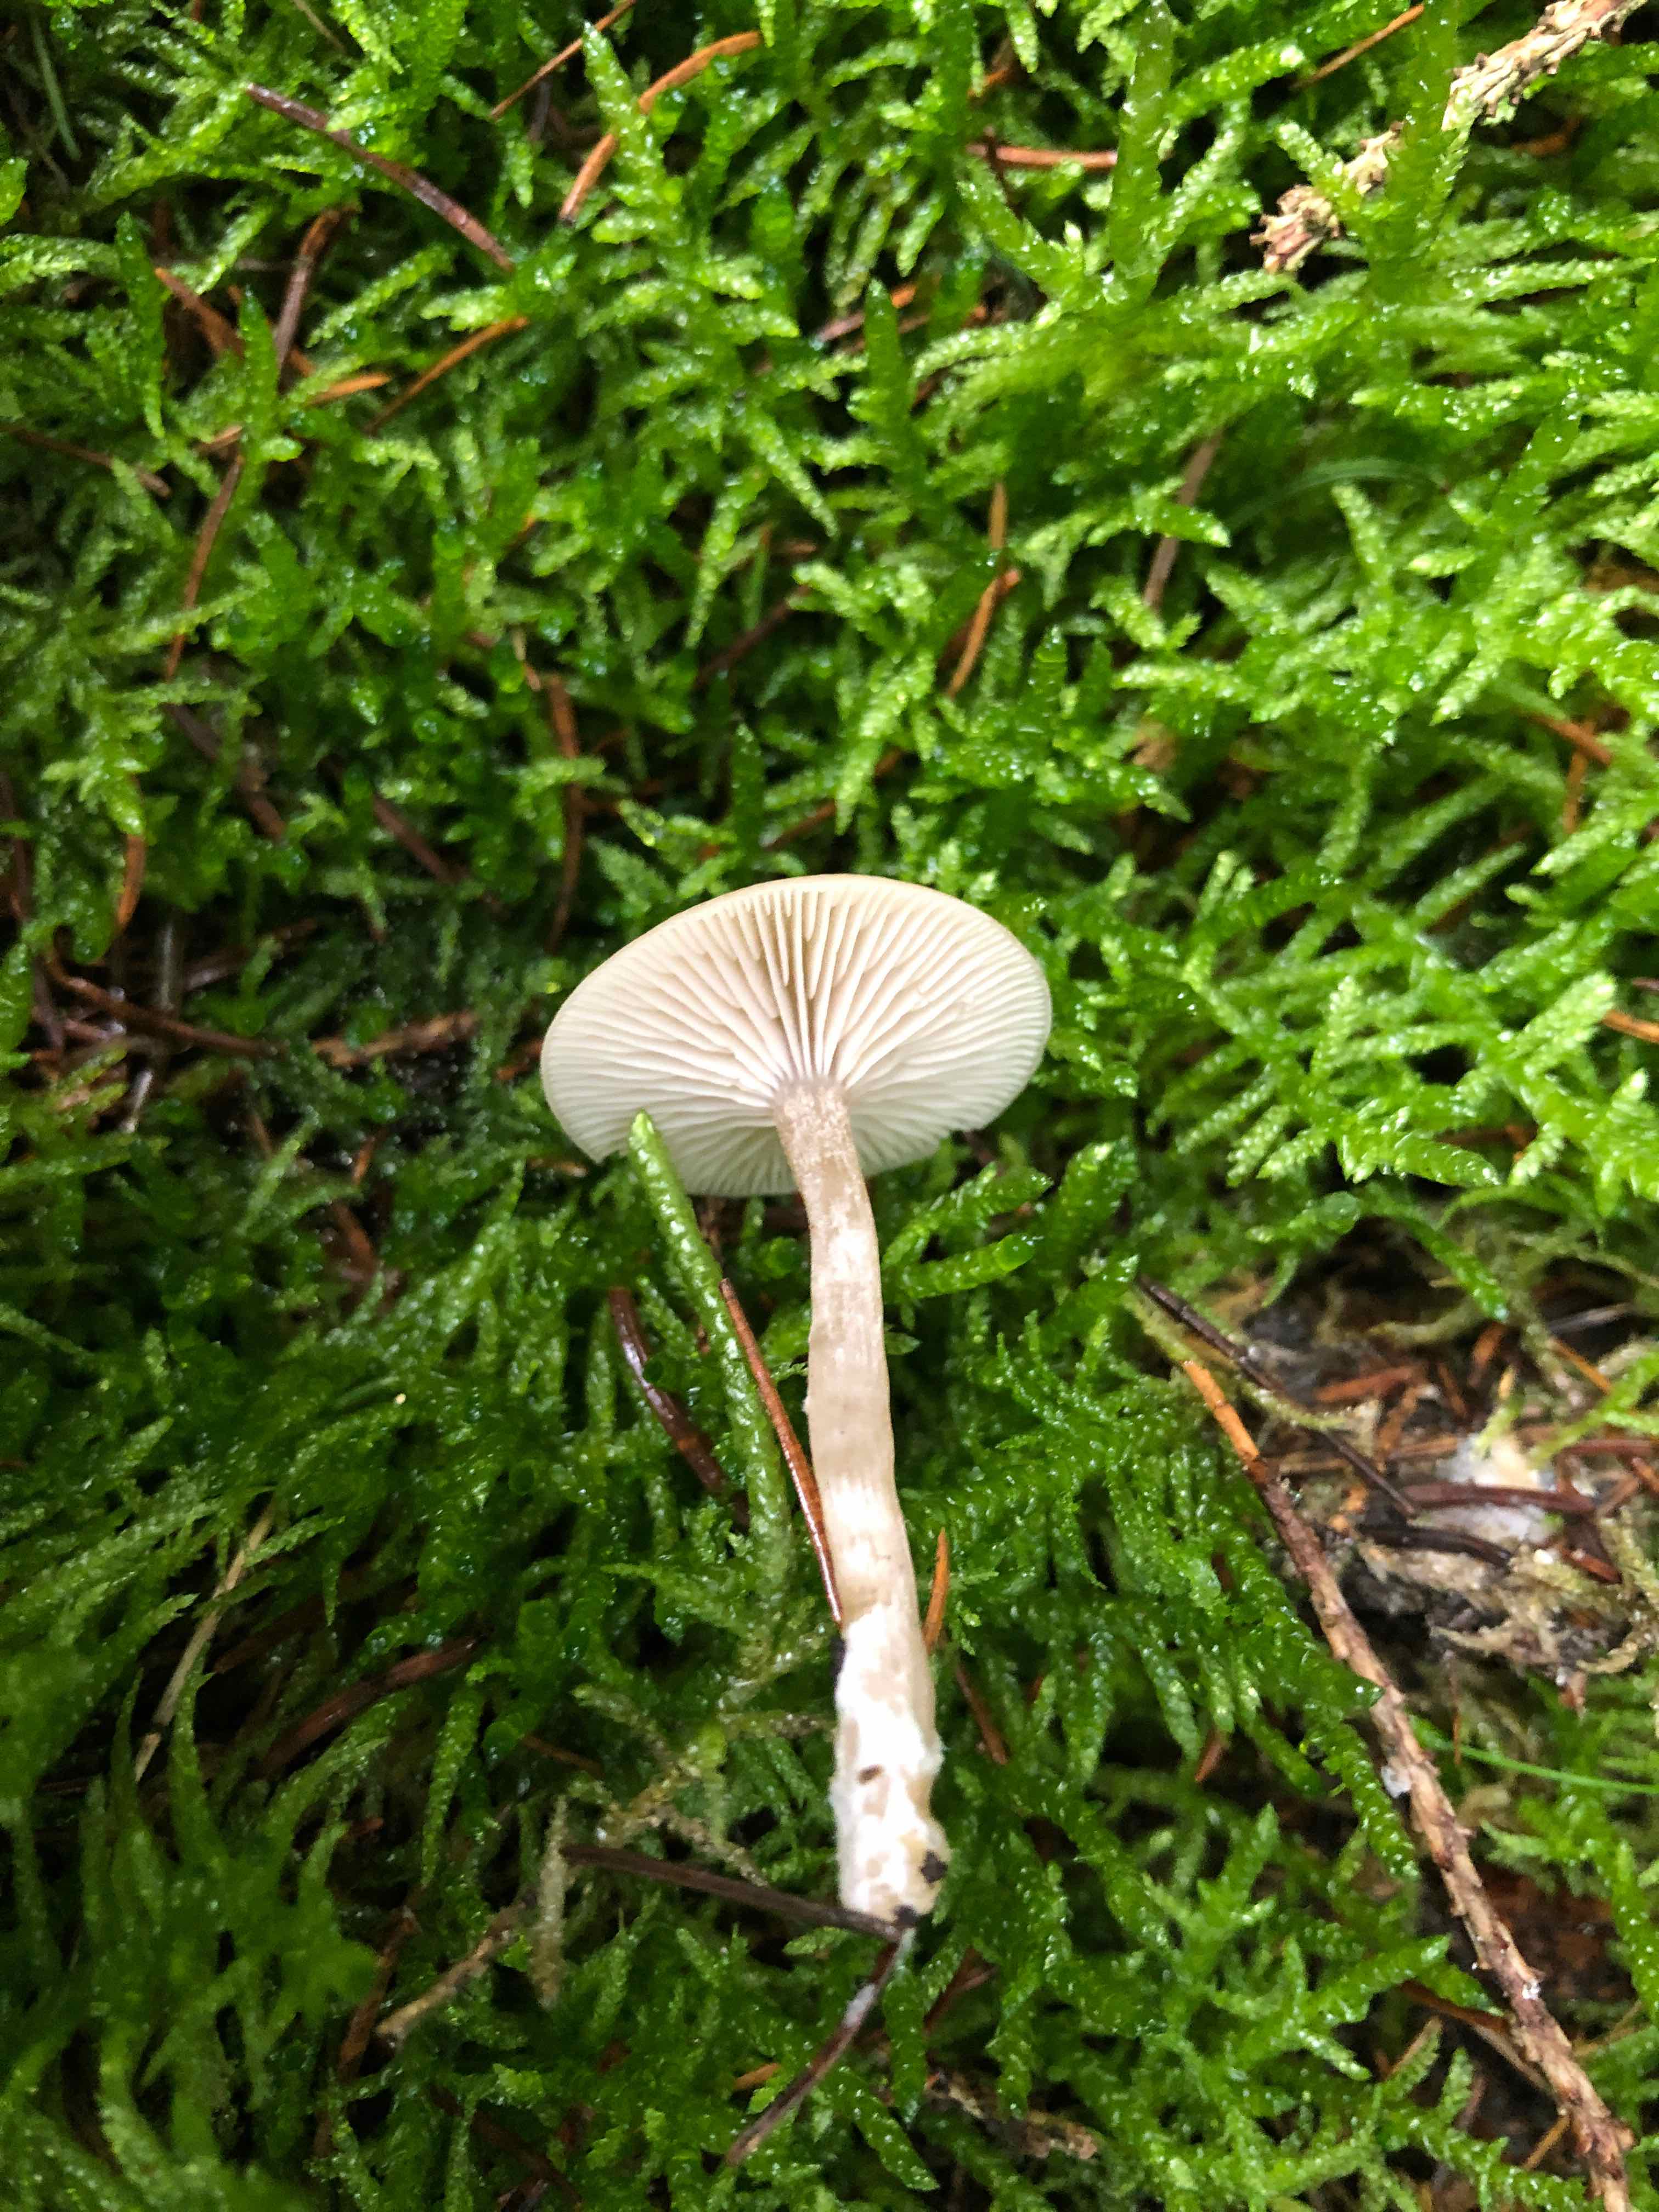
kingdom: Fungi
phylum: Basidiomycota
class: Agaricomycetes
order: Agaricales
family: Tricholomataceae
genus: Clitocybe
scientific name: Clitocybe fragrans
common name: vellugtende tragthat
